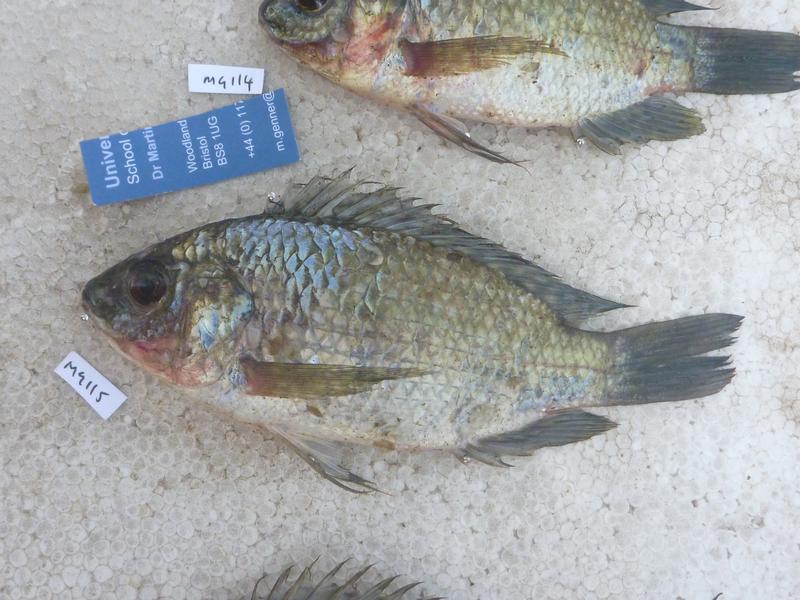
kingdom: Animalia
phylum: Chordata
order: Perciformes
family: Cichlidae
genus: Oreochromis
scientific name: Oreochromis leucostictus
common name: Blue spotted tilapia
